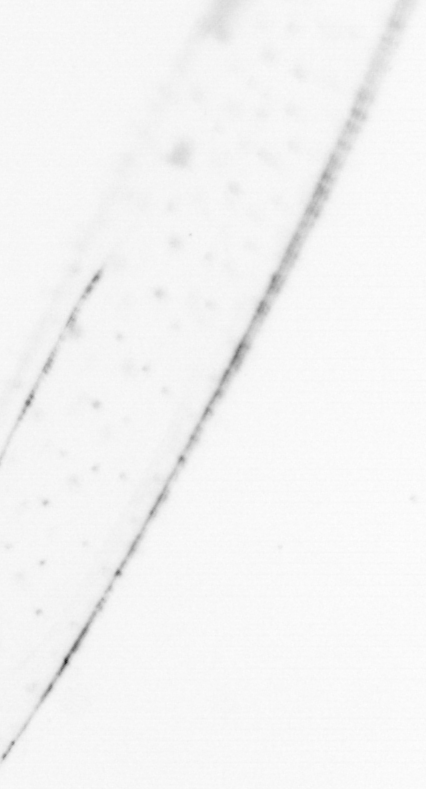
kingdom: Chromista
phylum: Ochrophyta
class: Bacillariophyceae
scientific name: Bacillariophyceae
